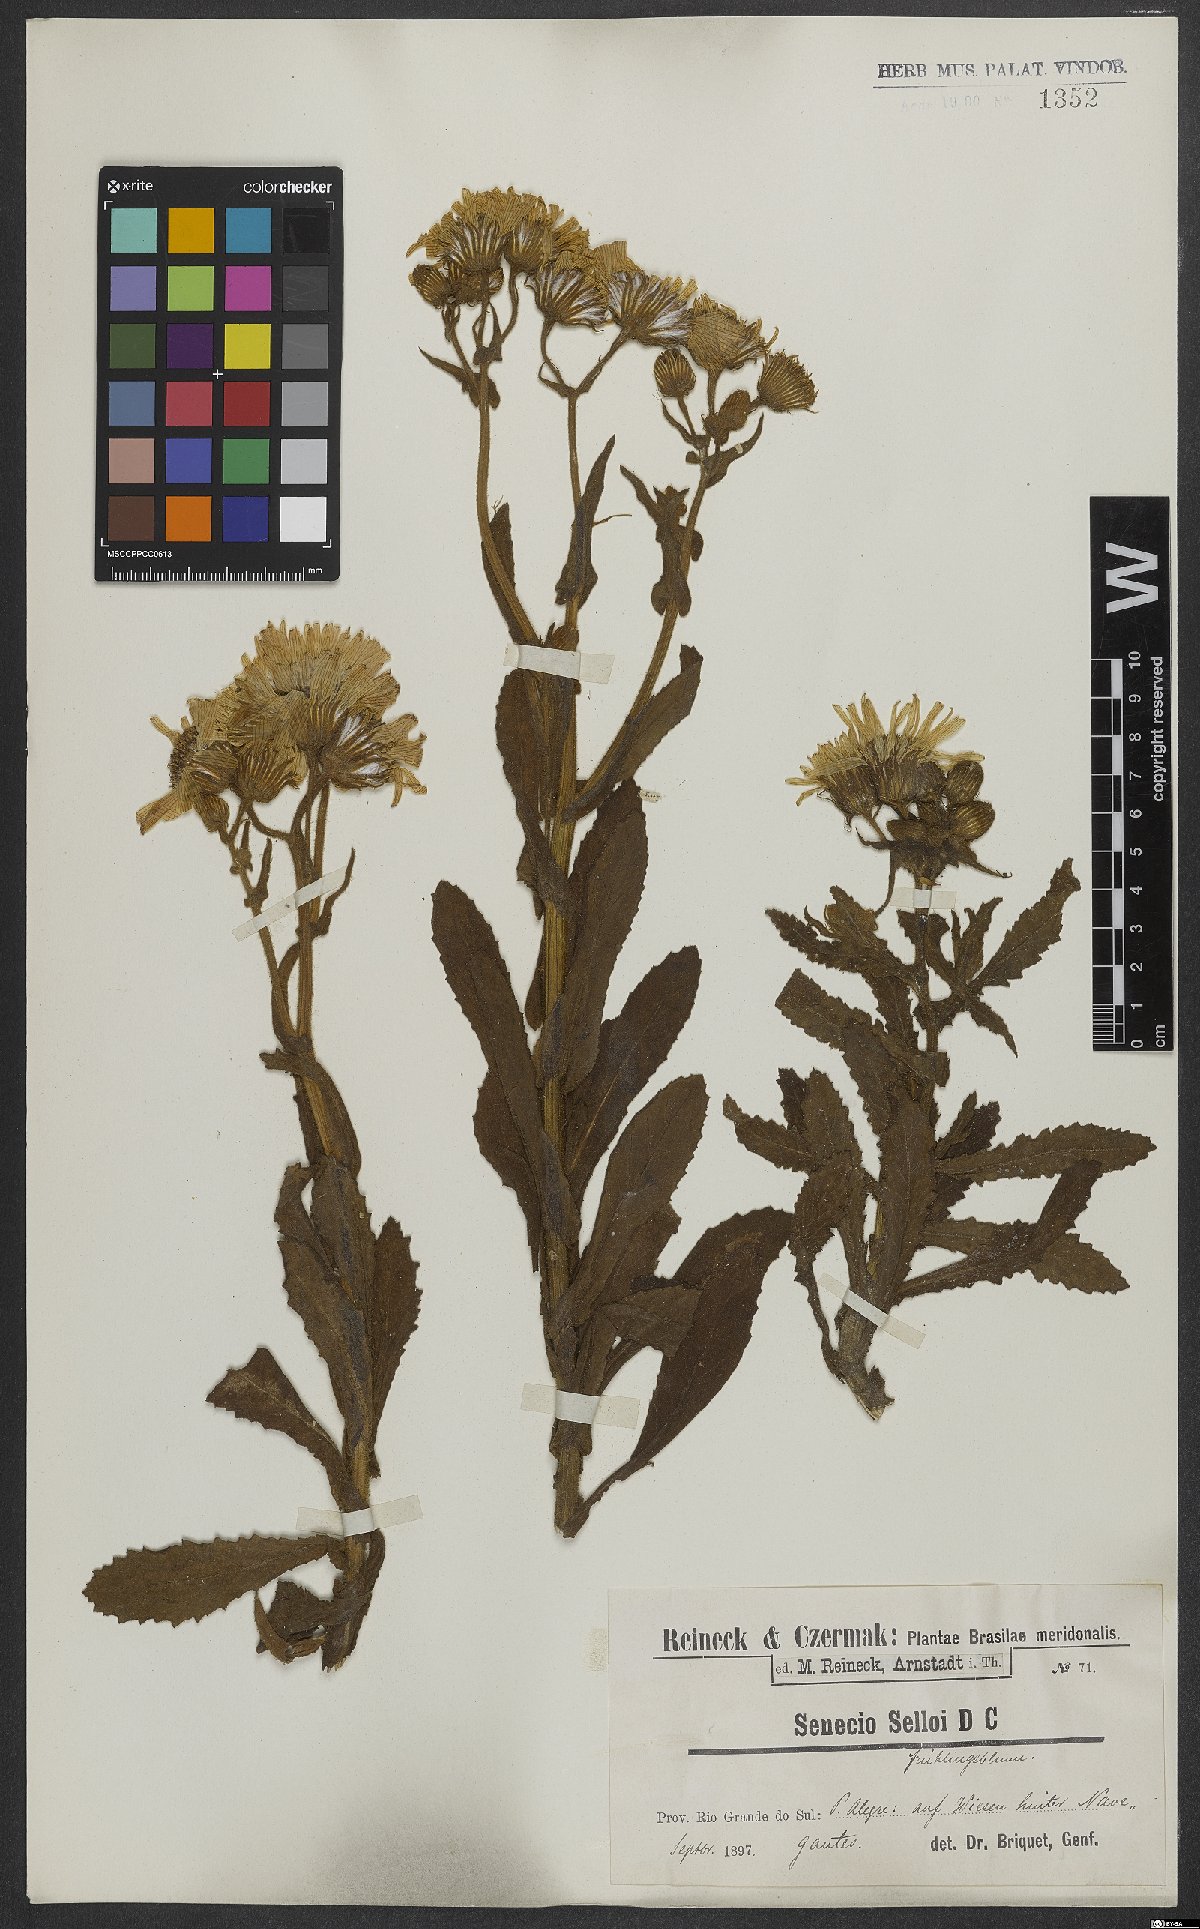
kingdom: Plantae
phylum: Tracheophyta
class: Magnoliopsida
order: Asterales
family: Asteraceae
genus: Senecio
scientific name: Senecio selloi
